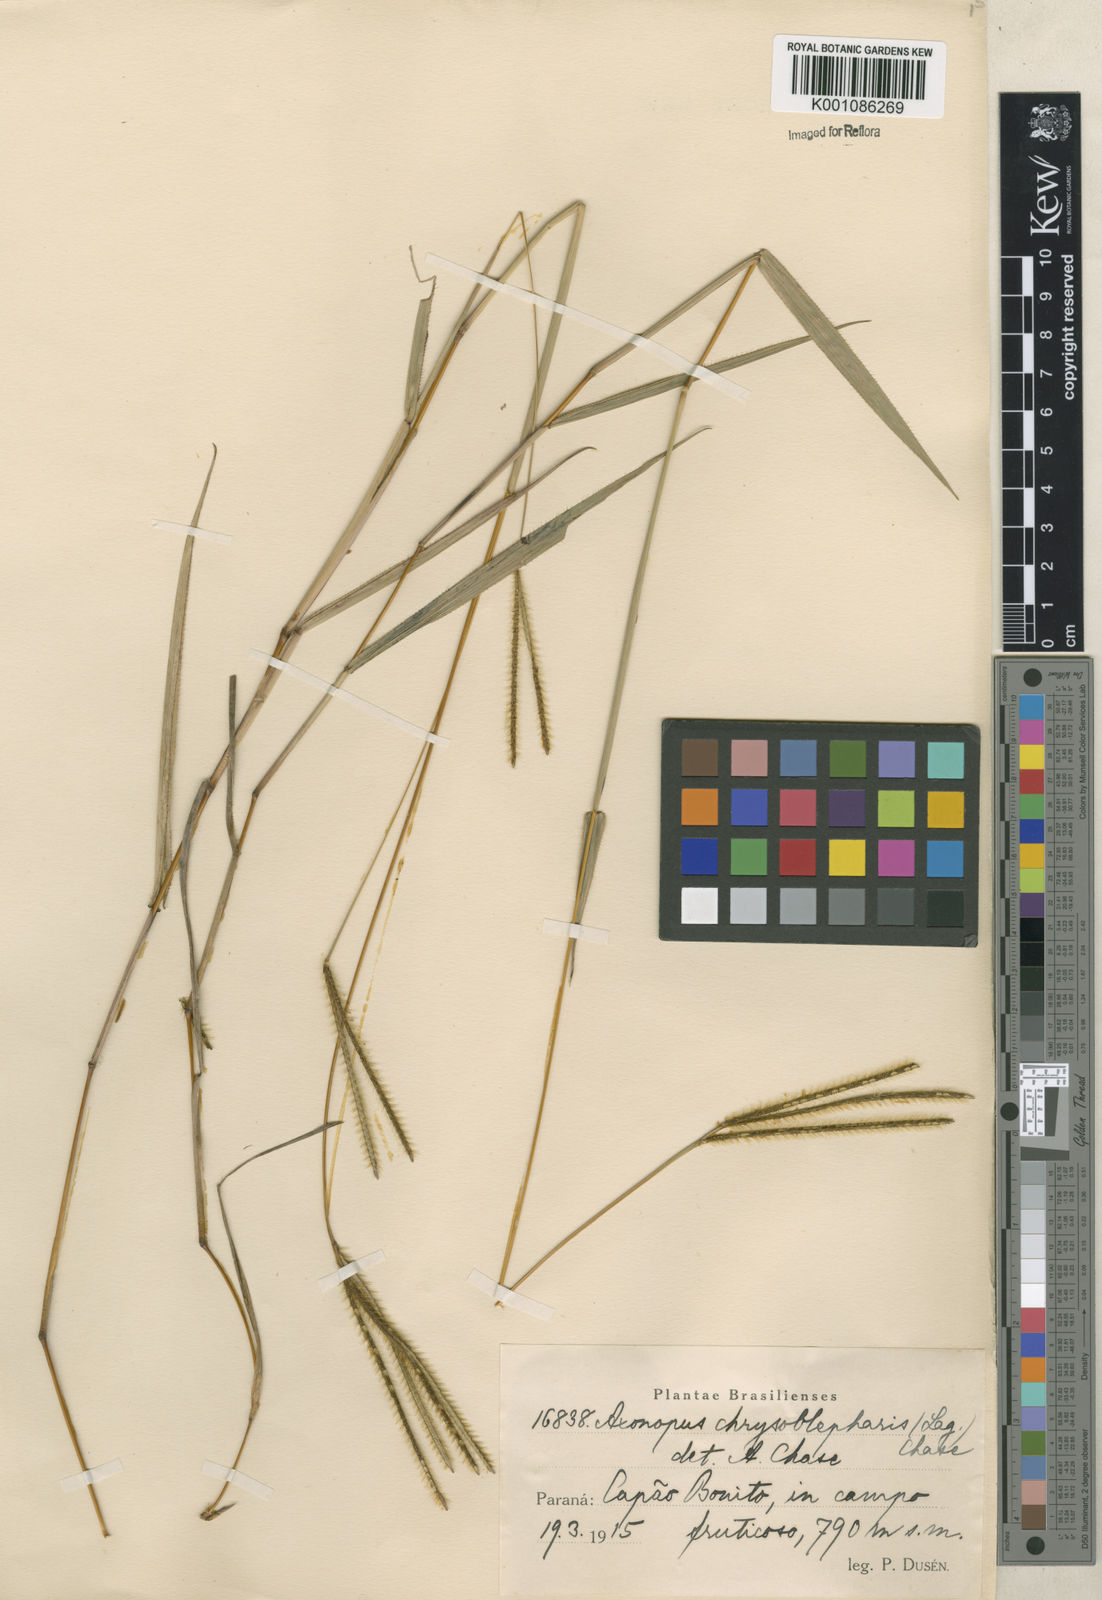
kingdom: Plantae
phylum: Tracheophyta
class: Liliopsida
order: Poales
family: Poaceae
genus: Axonopus
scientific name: Axonopus chrysoblepharis
